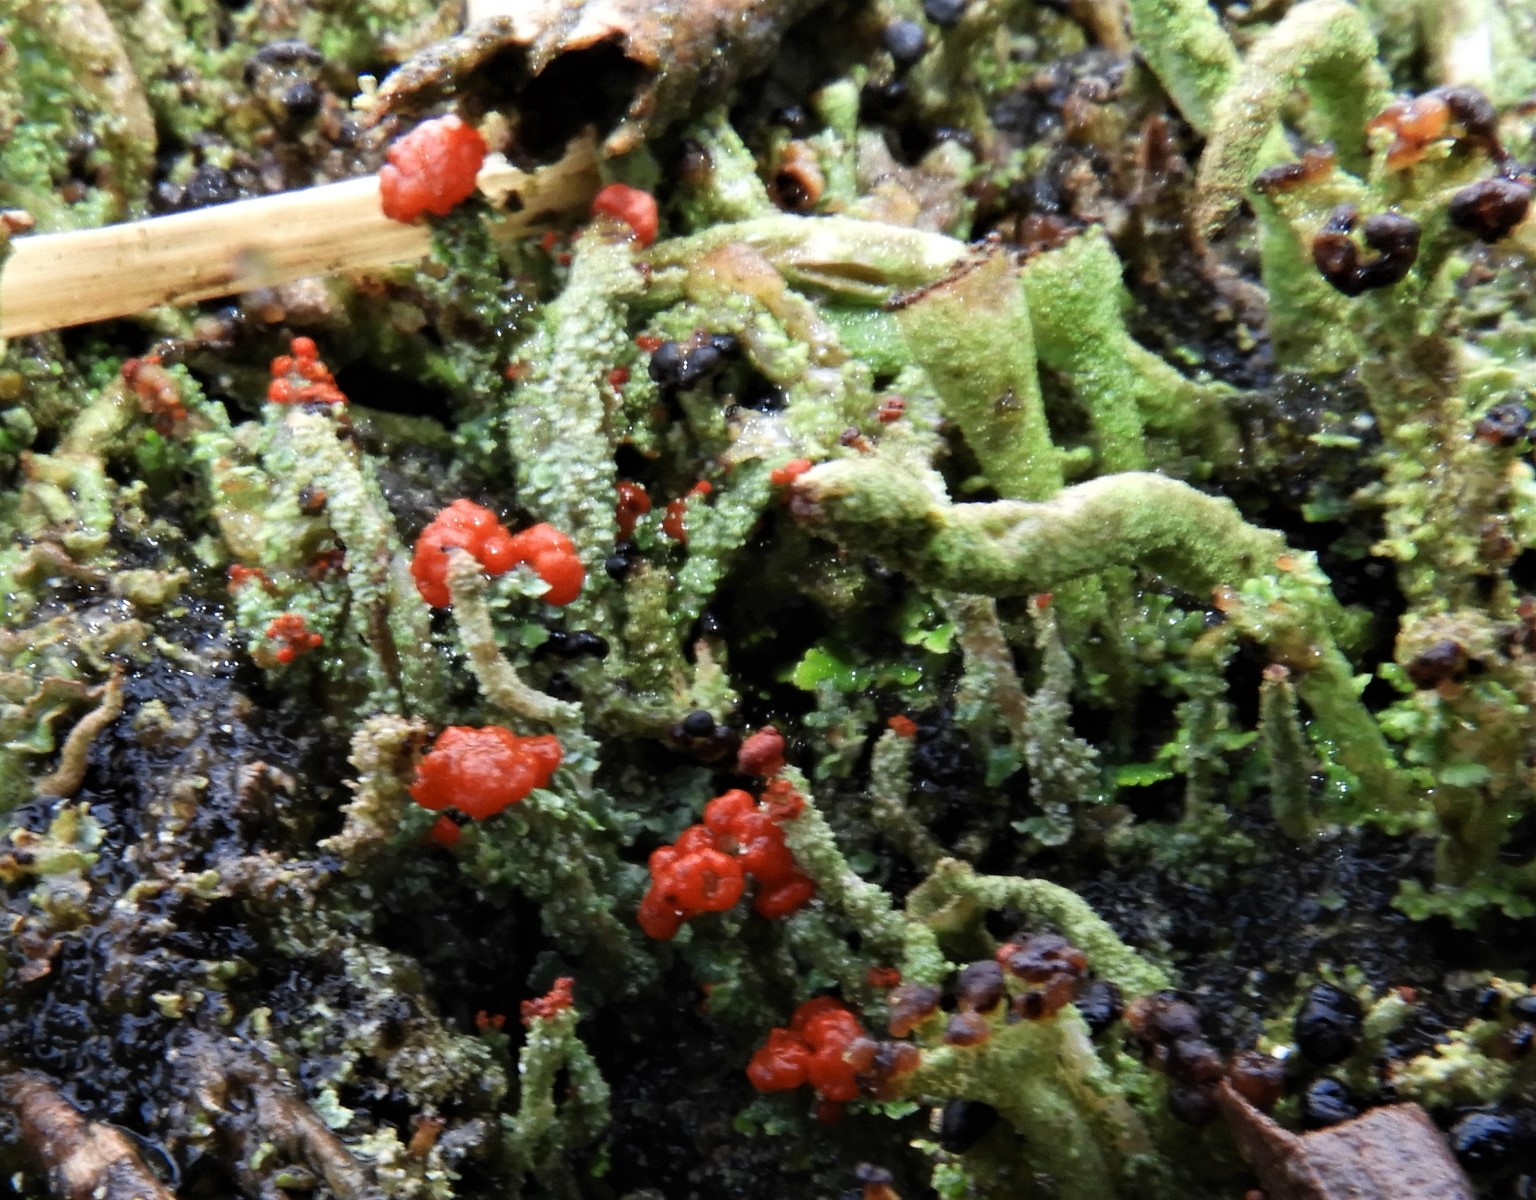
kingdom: Fungi
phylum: Ascomycota
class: Lecanoromycetes
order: Lecanorales
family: Cladoniaceae
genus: Cladonia
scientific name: Cladonia floerkeana
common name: lakrød bægerlav
